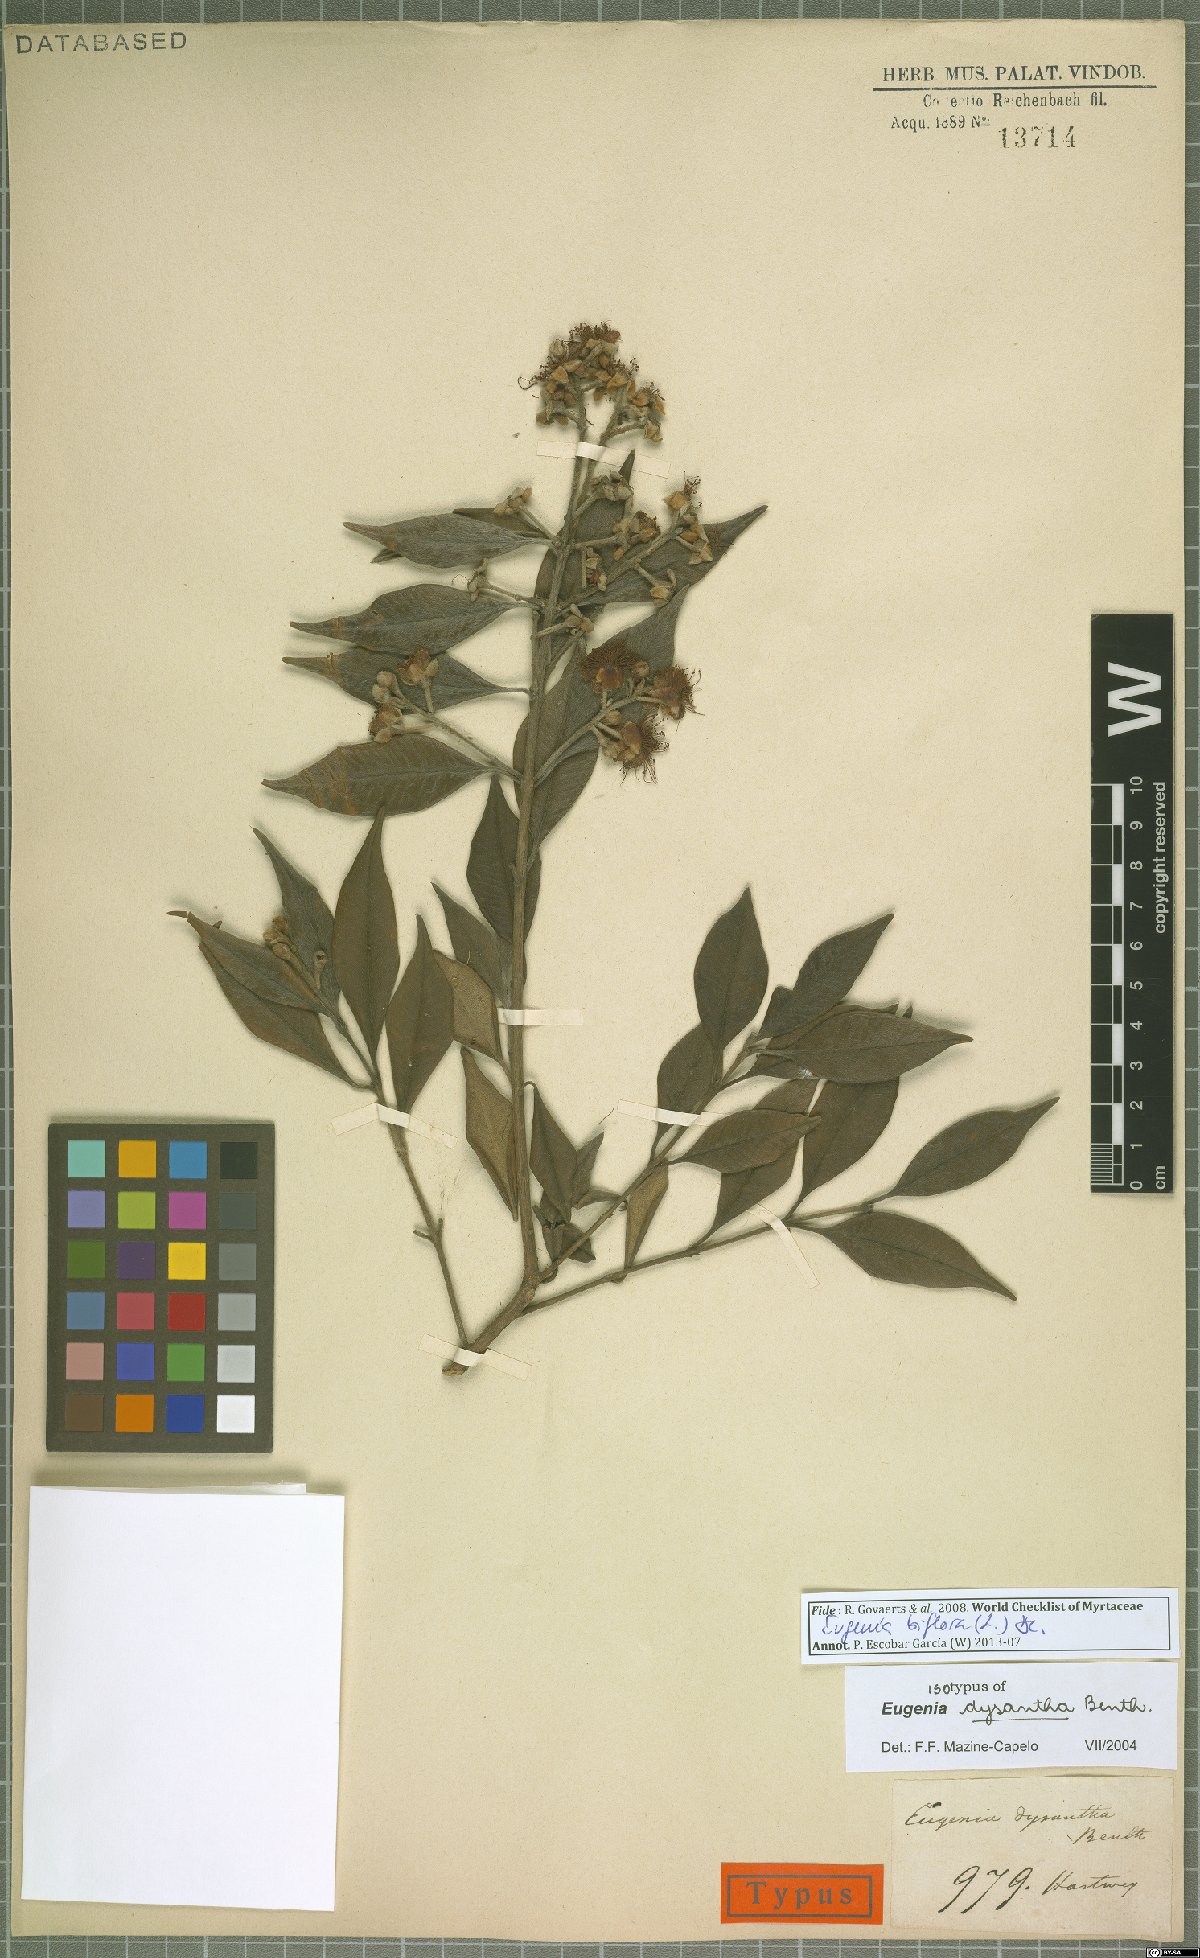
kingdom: Plantae
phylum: Tracheophyta
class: Magnoliopsida
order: Myrtales
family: Myrtaceae
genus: Eugenia
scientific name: Eugenia biflora
